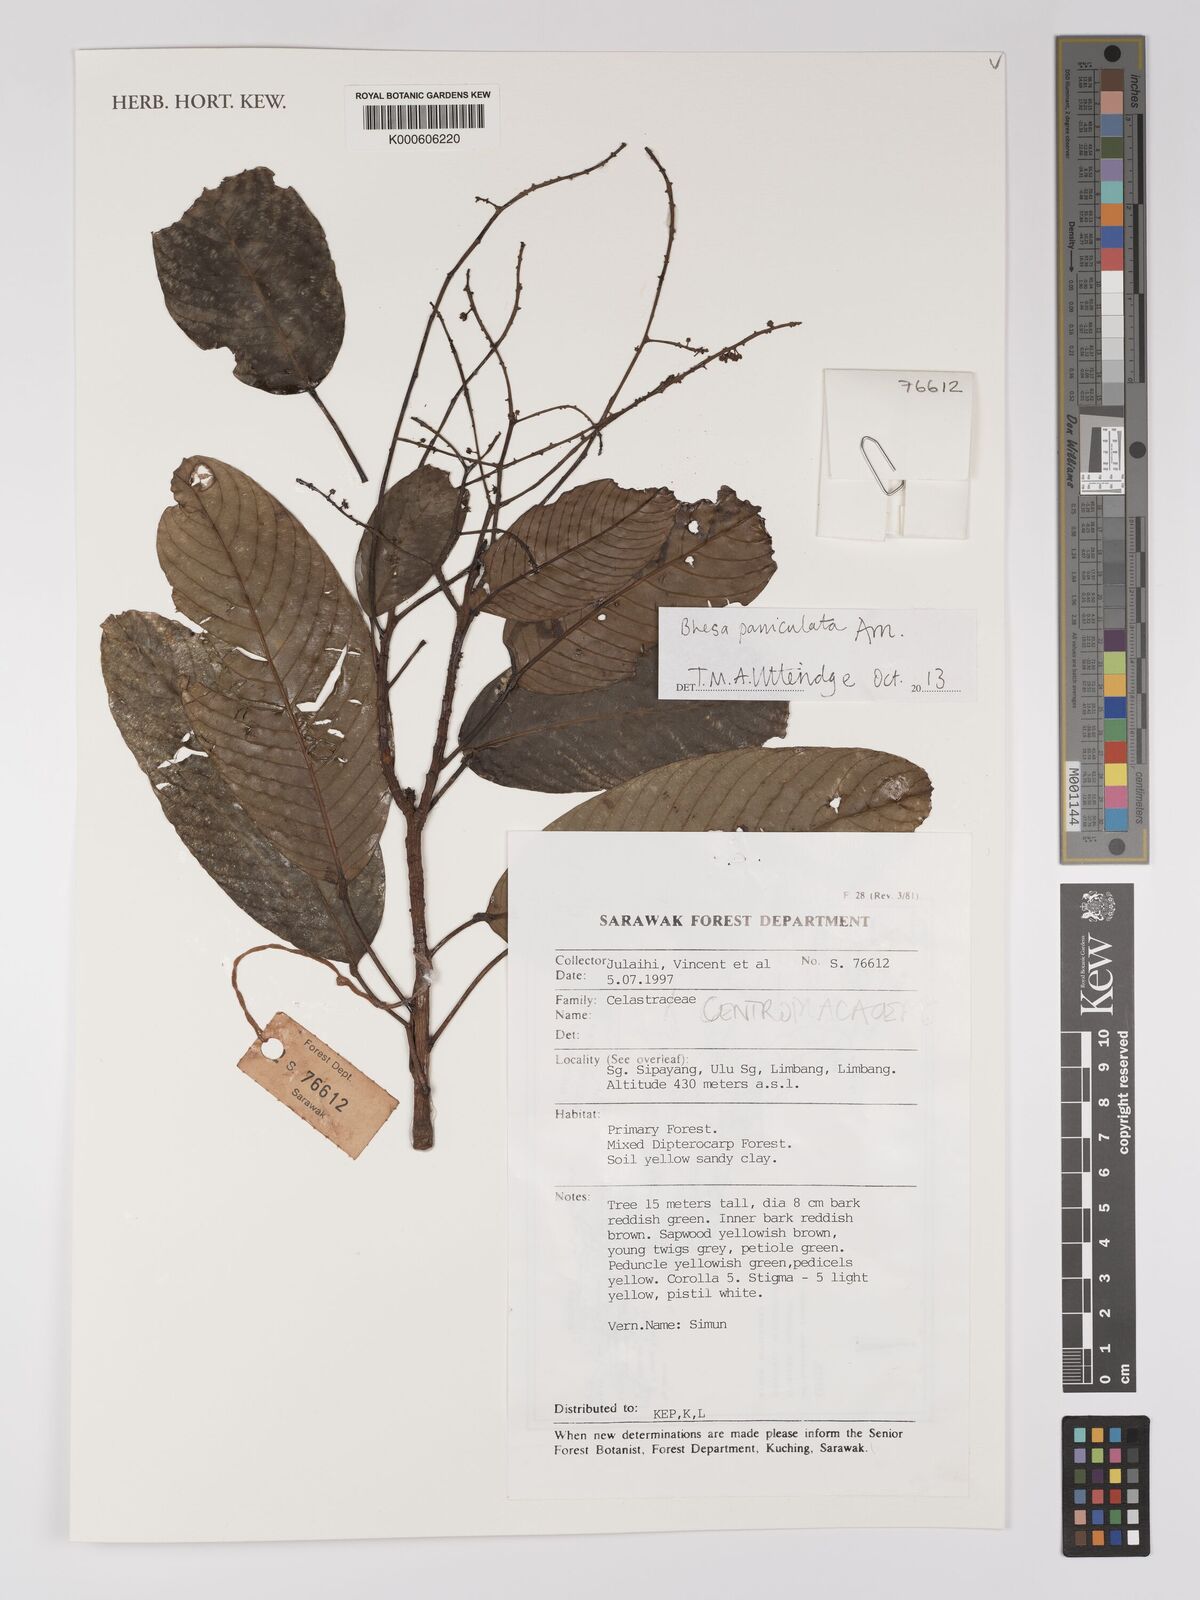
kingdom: Plantae
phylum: Tracheophyta
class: Magnoliopsida
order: Malpighiales
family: Centroplacaceae
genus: Bhesa
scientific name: Bhesa paniculata
